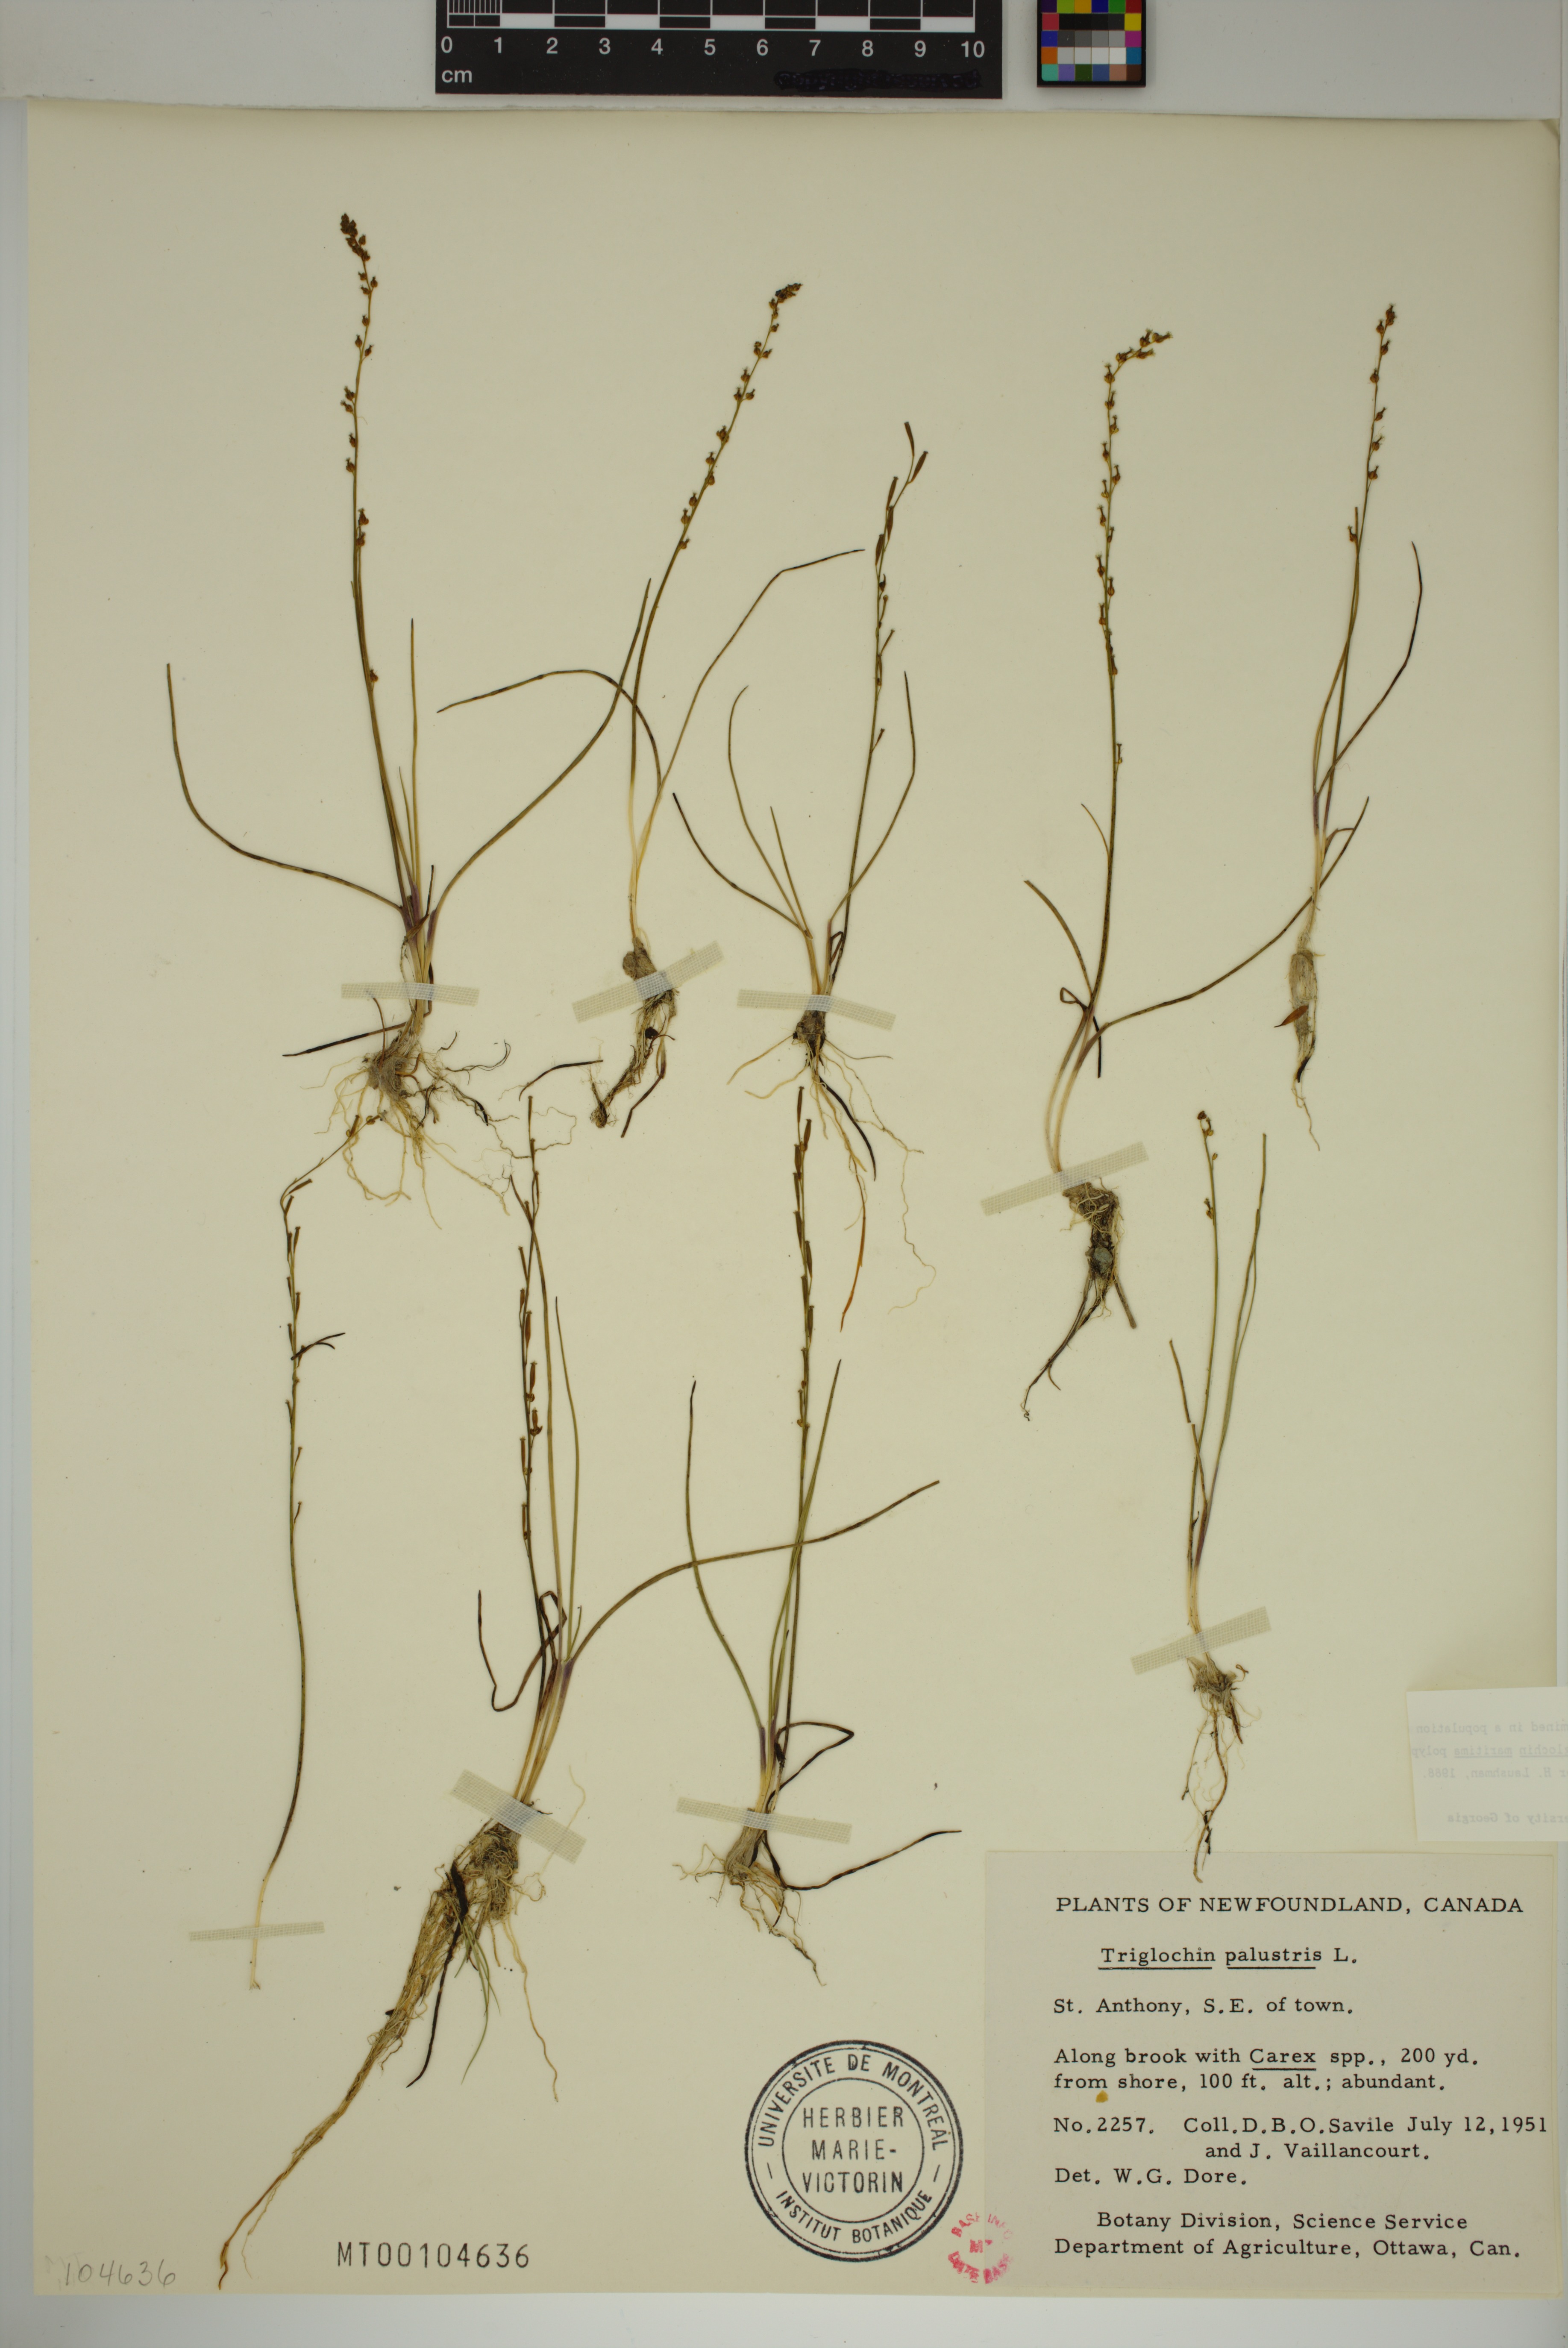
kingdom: Plantae
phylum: Tracheophyta
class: Liliopsida
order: Alismatales
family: Juncaginaceae
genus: Triglochin
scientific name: Triglochin palustris
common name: Marsh arrowgrass
